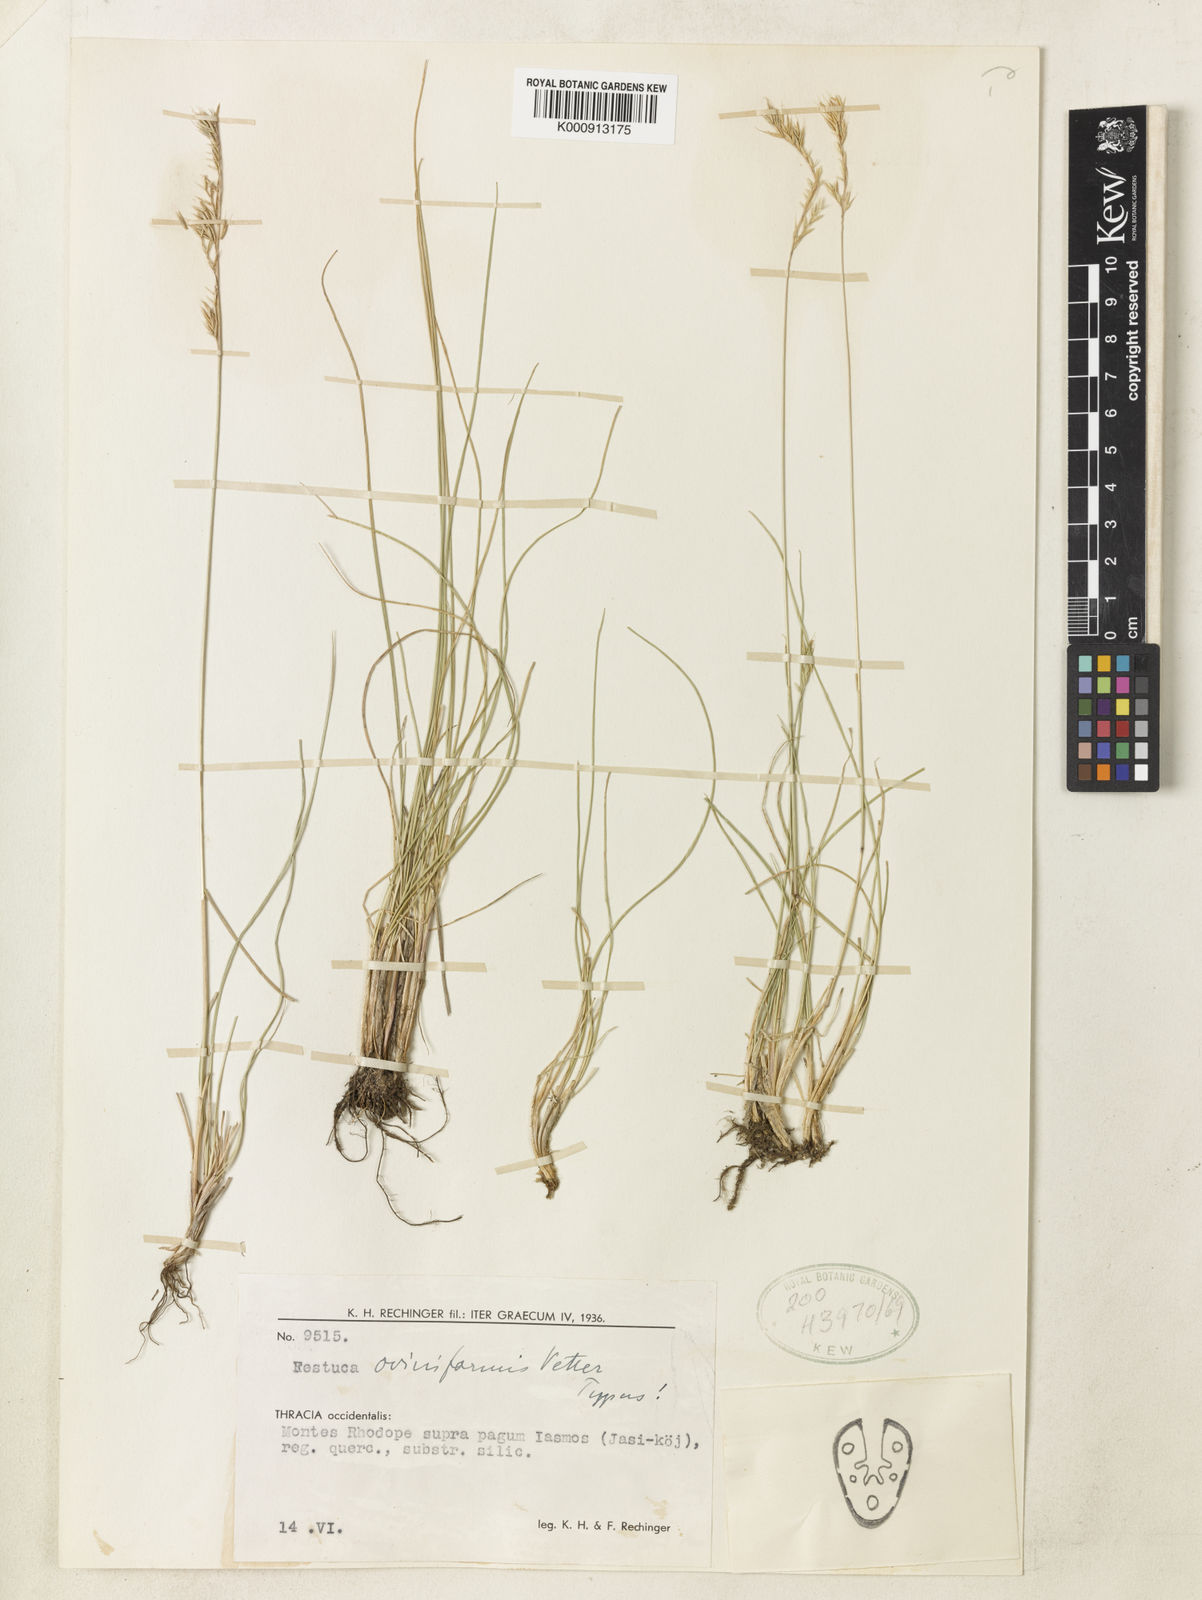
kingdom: Plantae
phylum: Tracheophyta
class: Liliopsida
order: Poales
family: Poaceae
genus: Festuca
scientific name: Festuca oviniformis
